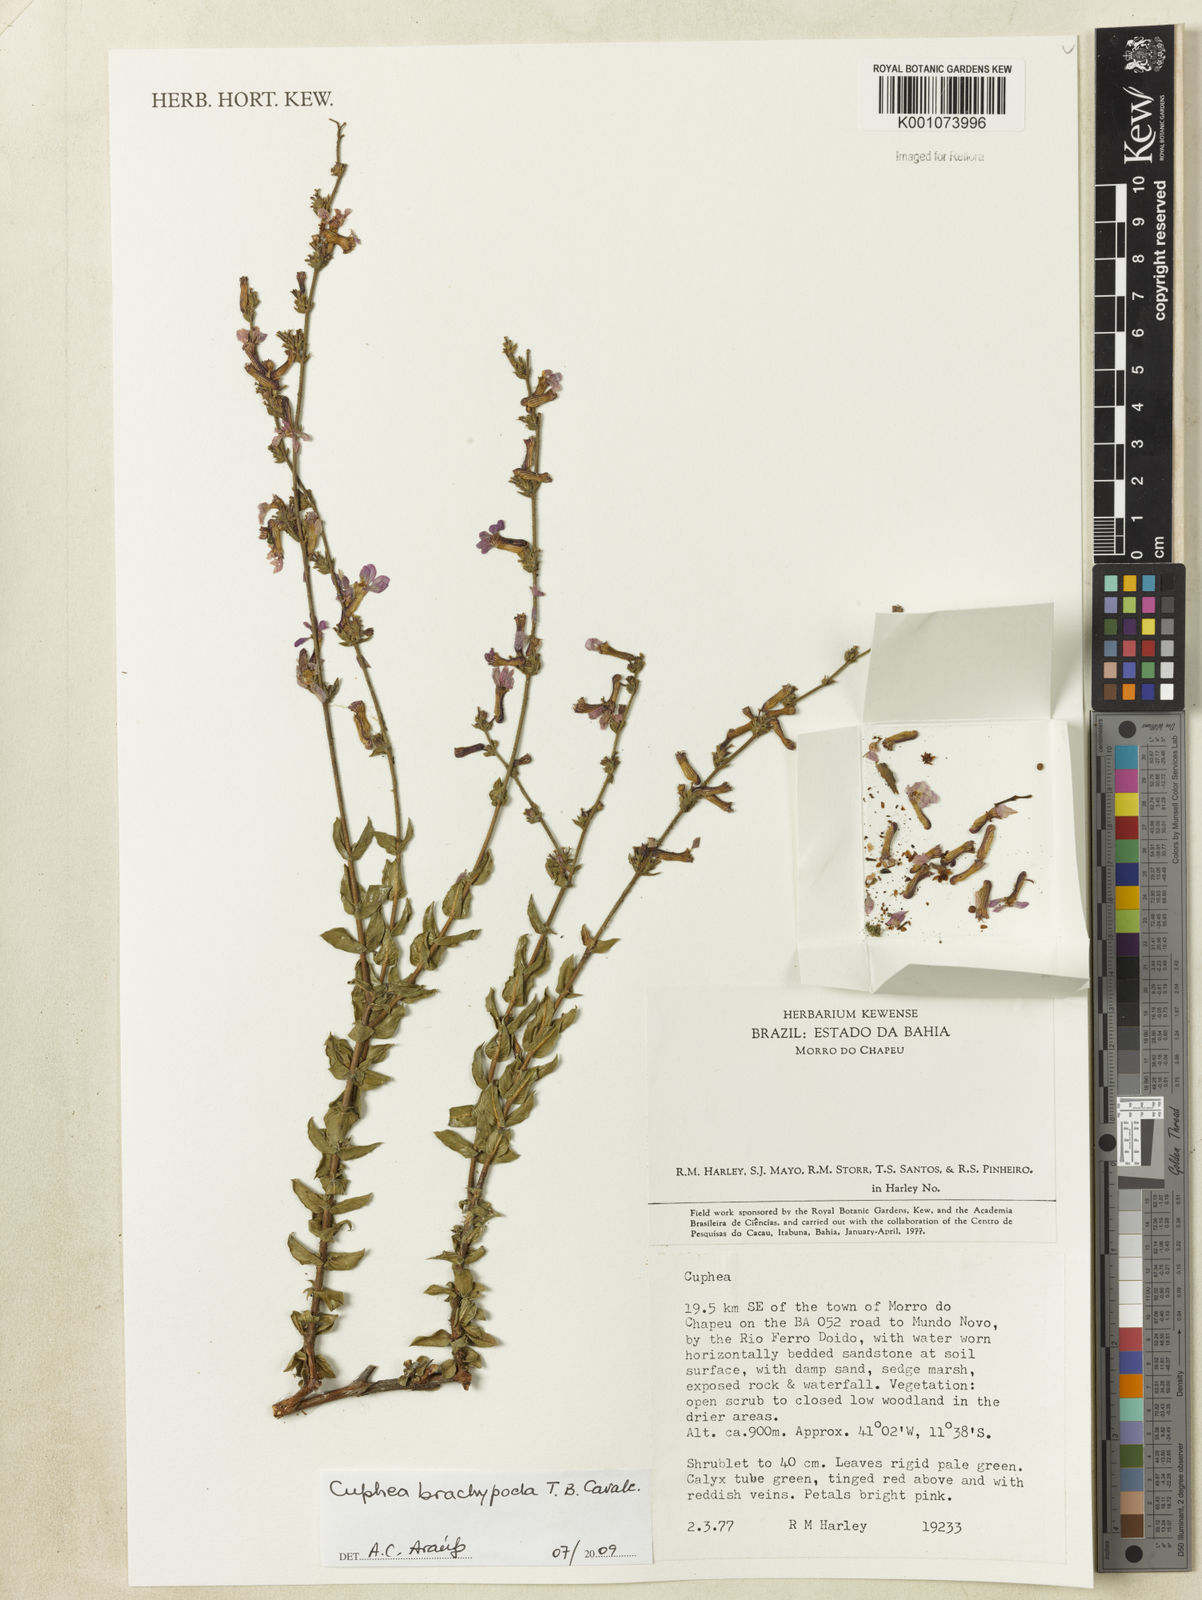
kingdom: Plantae
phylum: Tracheophyta
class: Magnoliopsida
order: Myrtales
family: Lythraceae
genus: Cuphea
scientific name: Cuphea brachypoda
